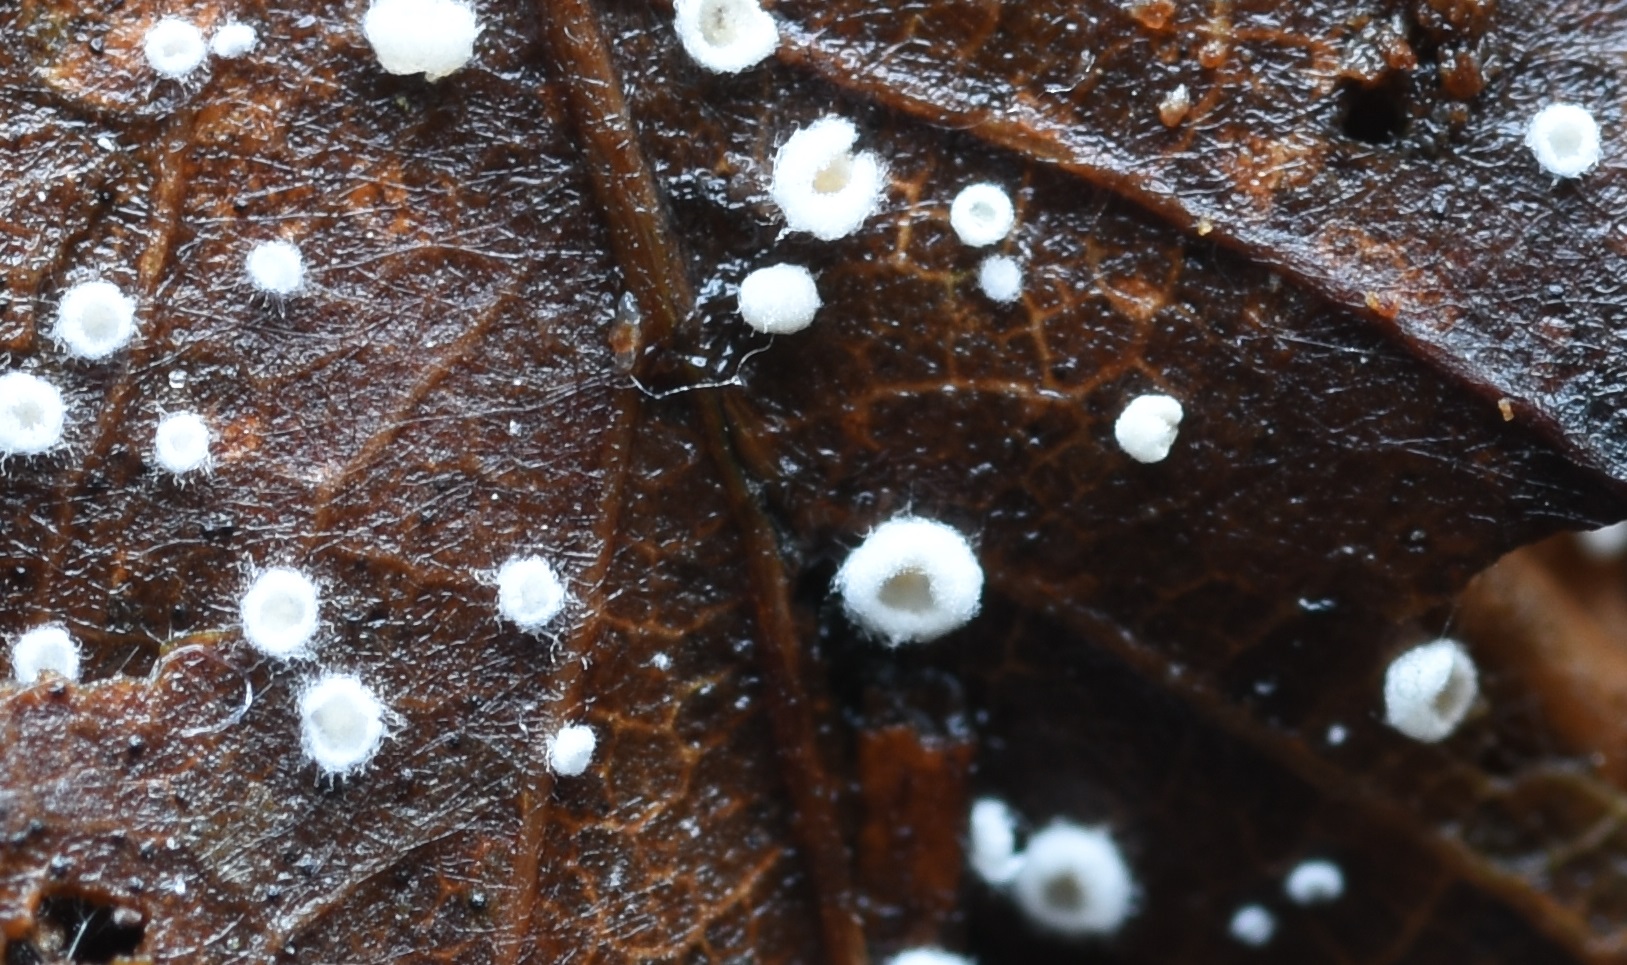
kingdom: Fungi
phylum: Basidiomycota
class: Agaricomycetes
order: Agaricales
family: Crepidotaceae
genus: Pellidiscus
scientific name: Pellidiscus pallidus
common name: skålformet muslingesvamp
